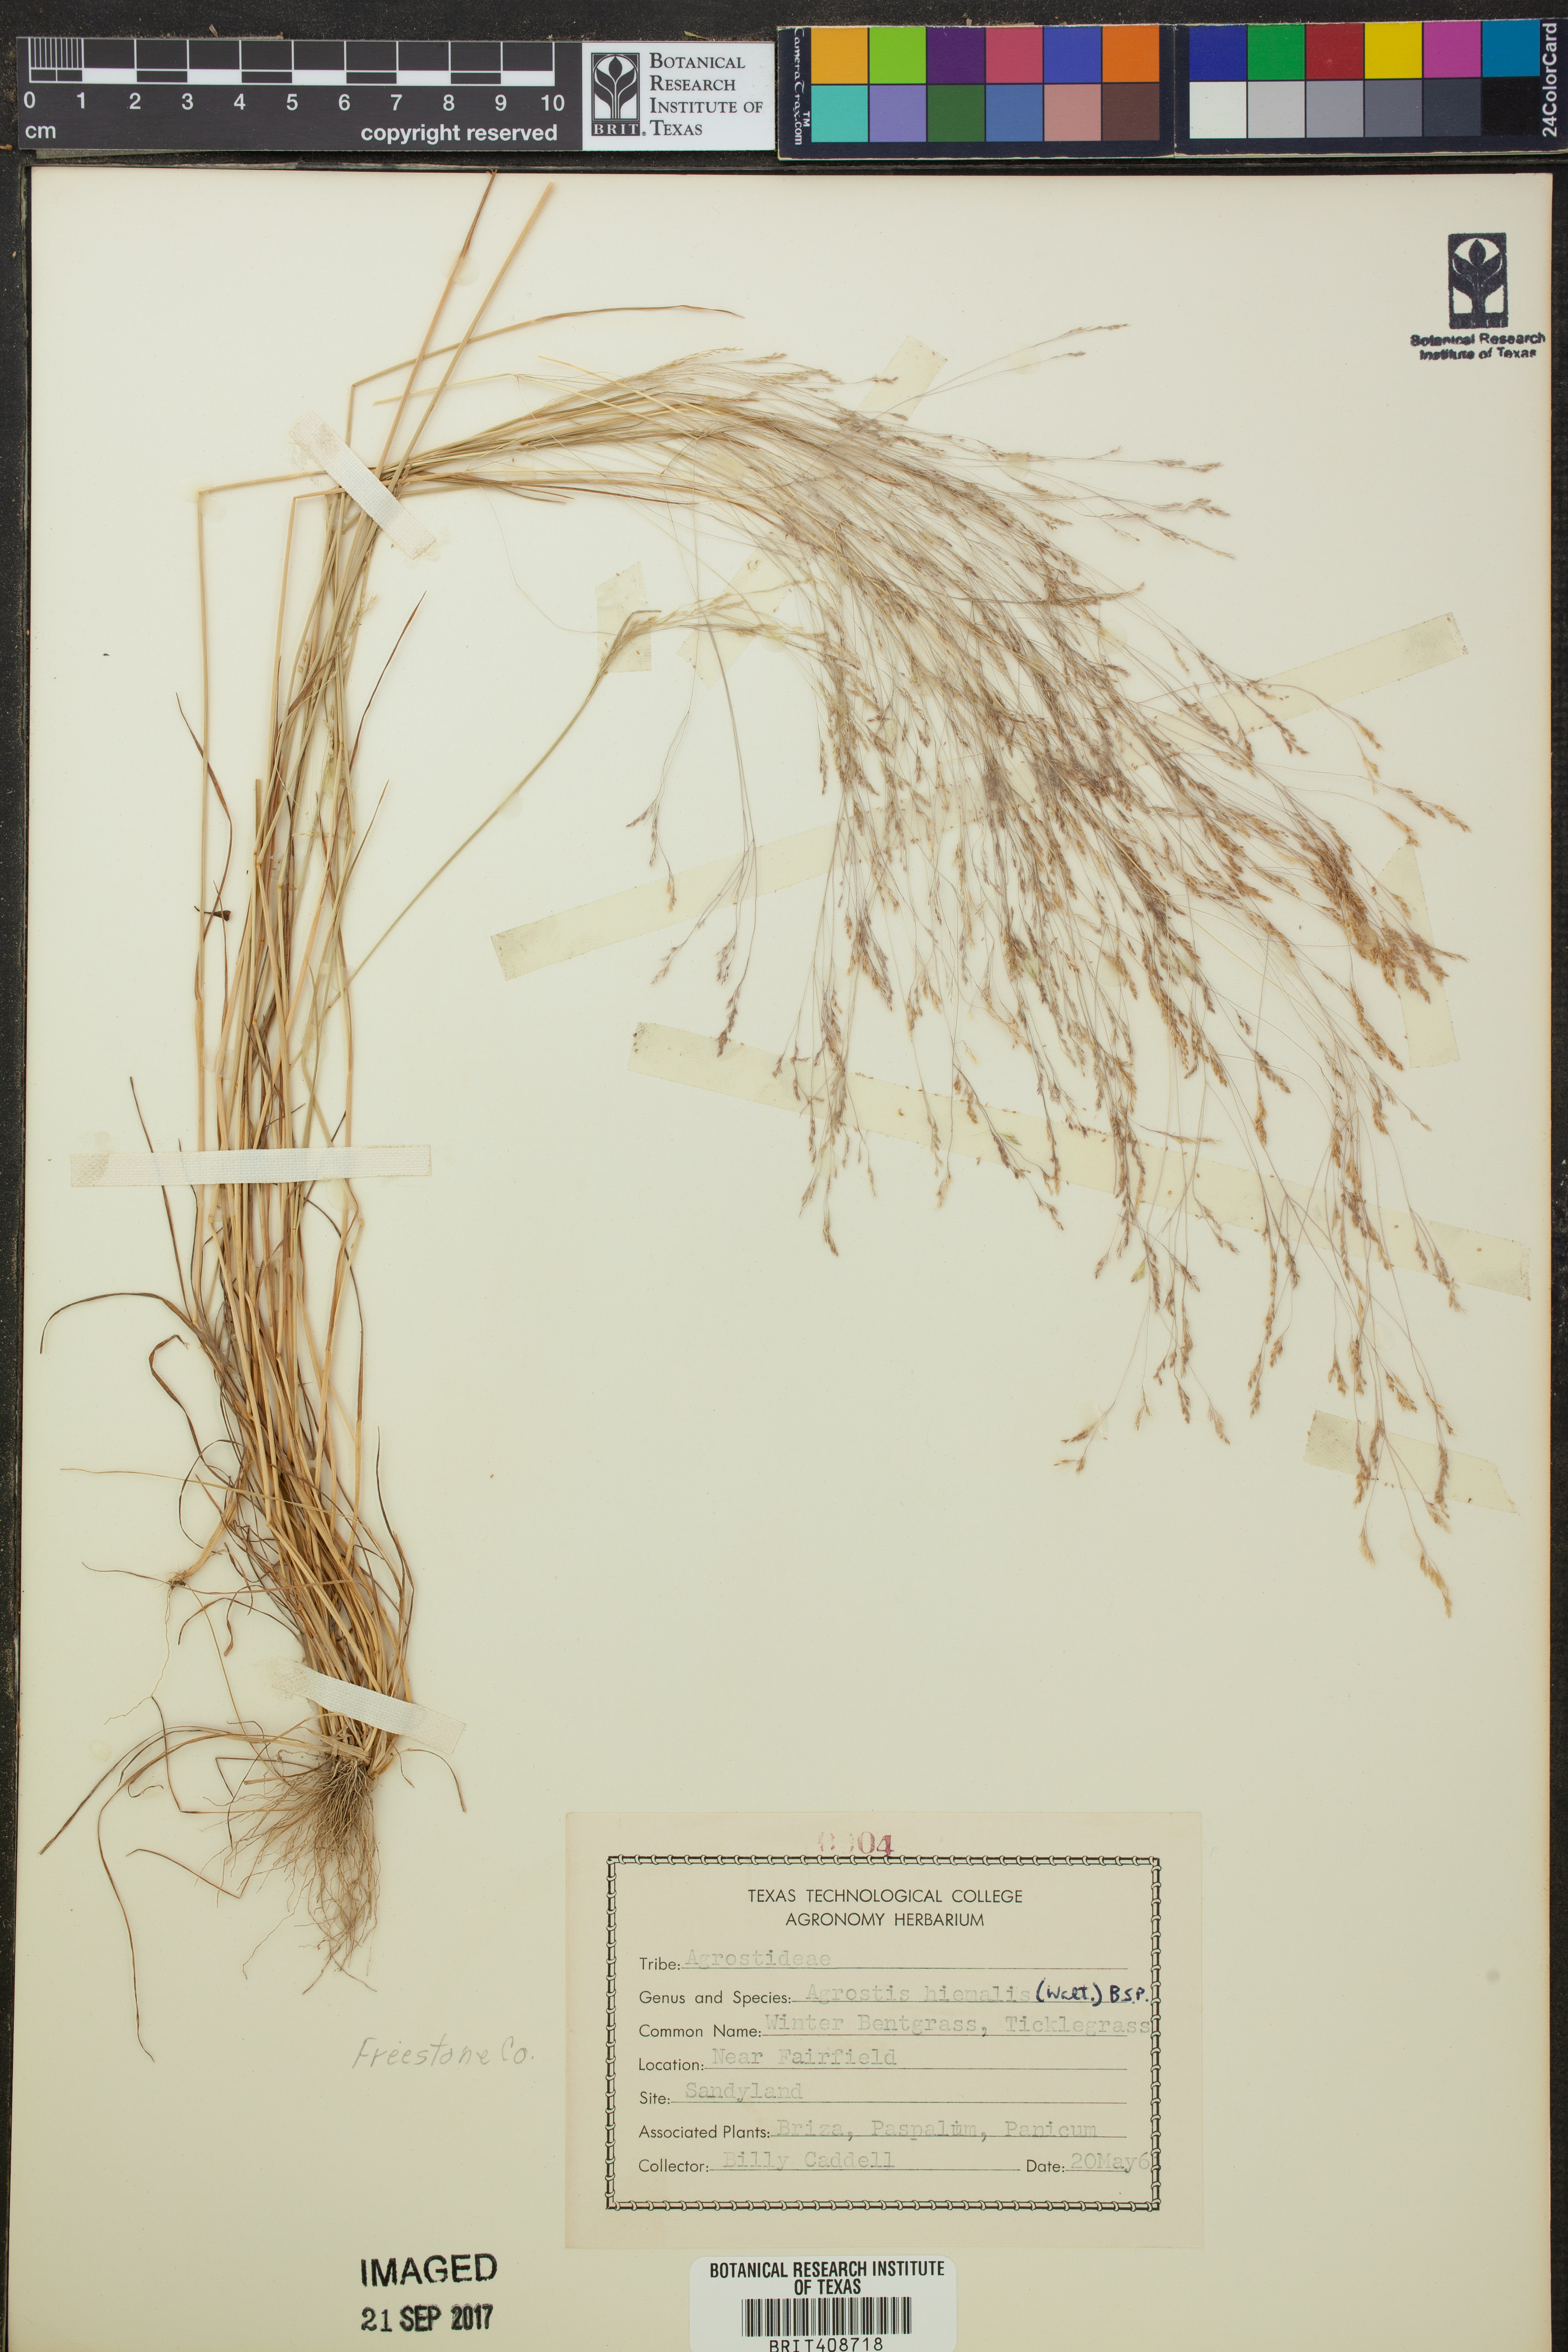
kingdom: Plantae
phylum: Tracheophyta
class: Liliopsida
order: Poales
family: Poaceae
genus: Agrostis
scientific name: Agrostis hyemalis
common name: Small bent
